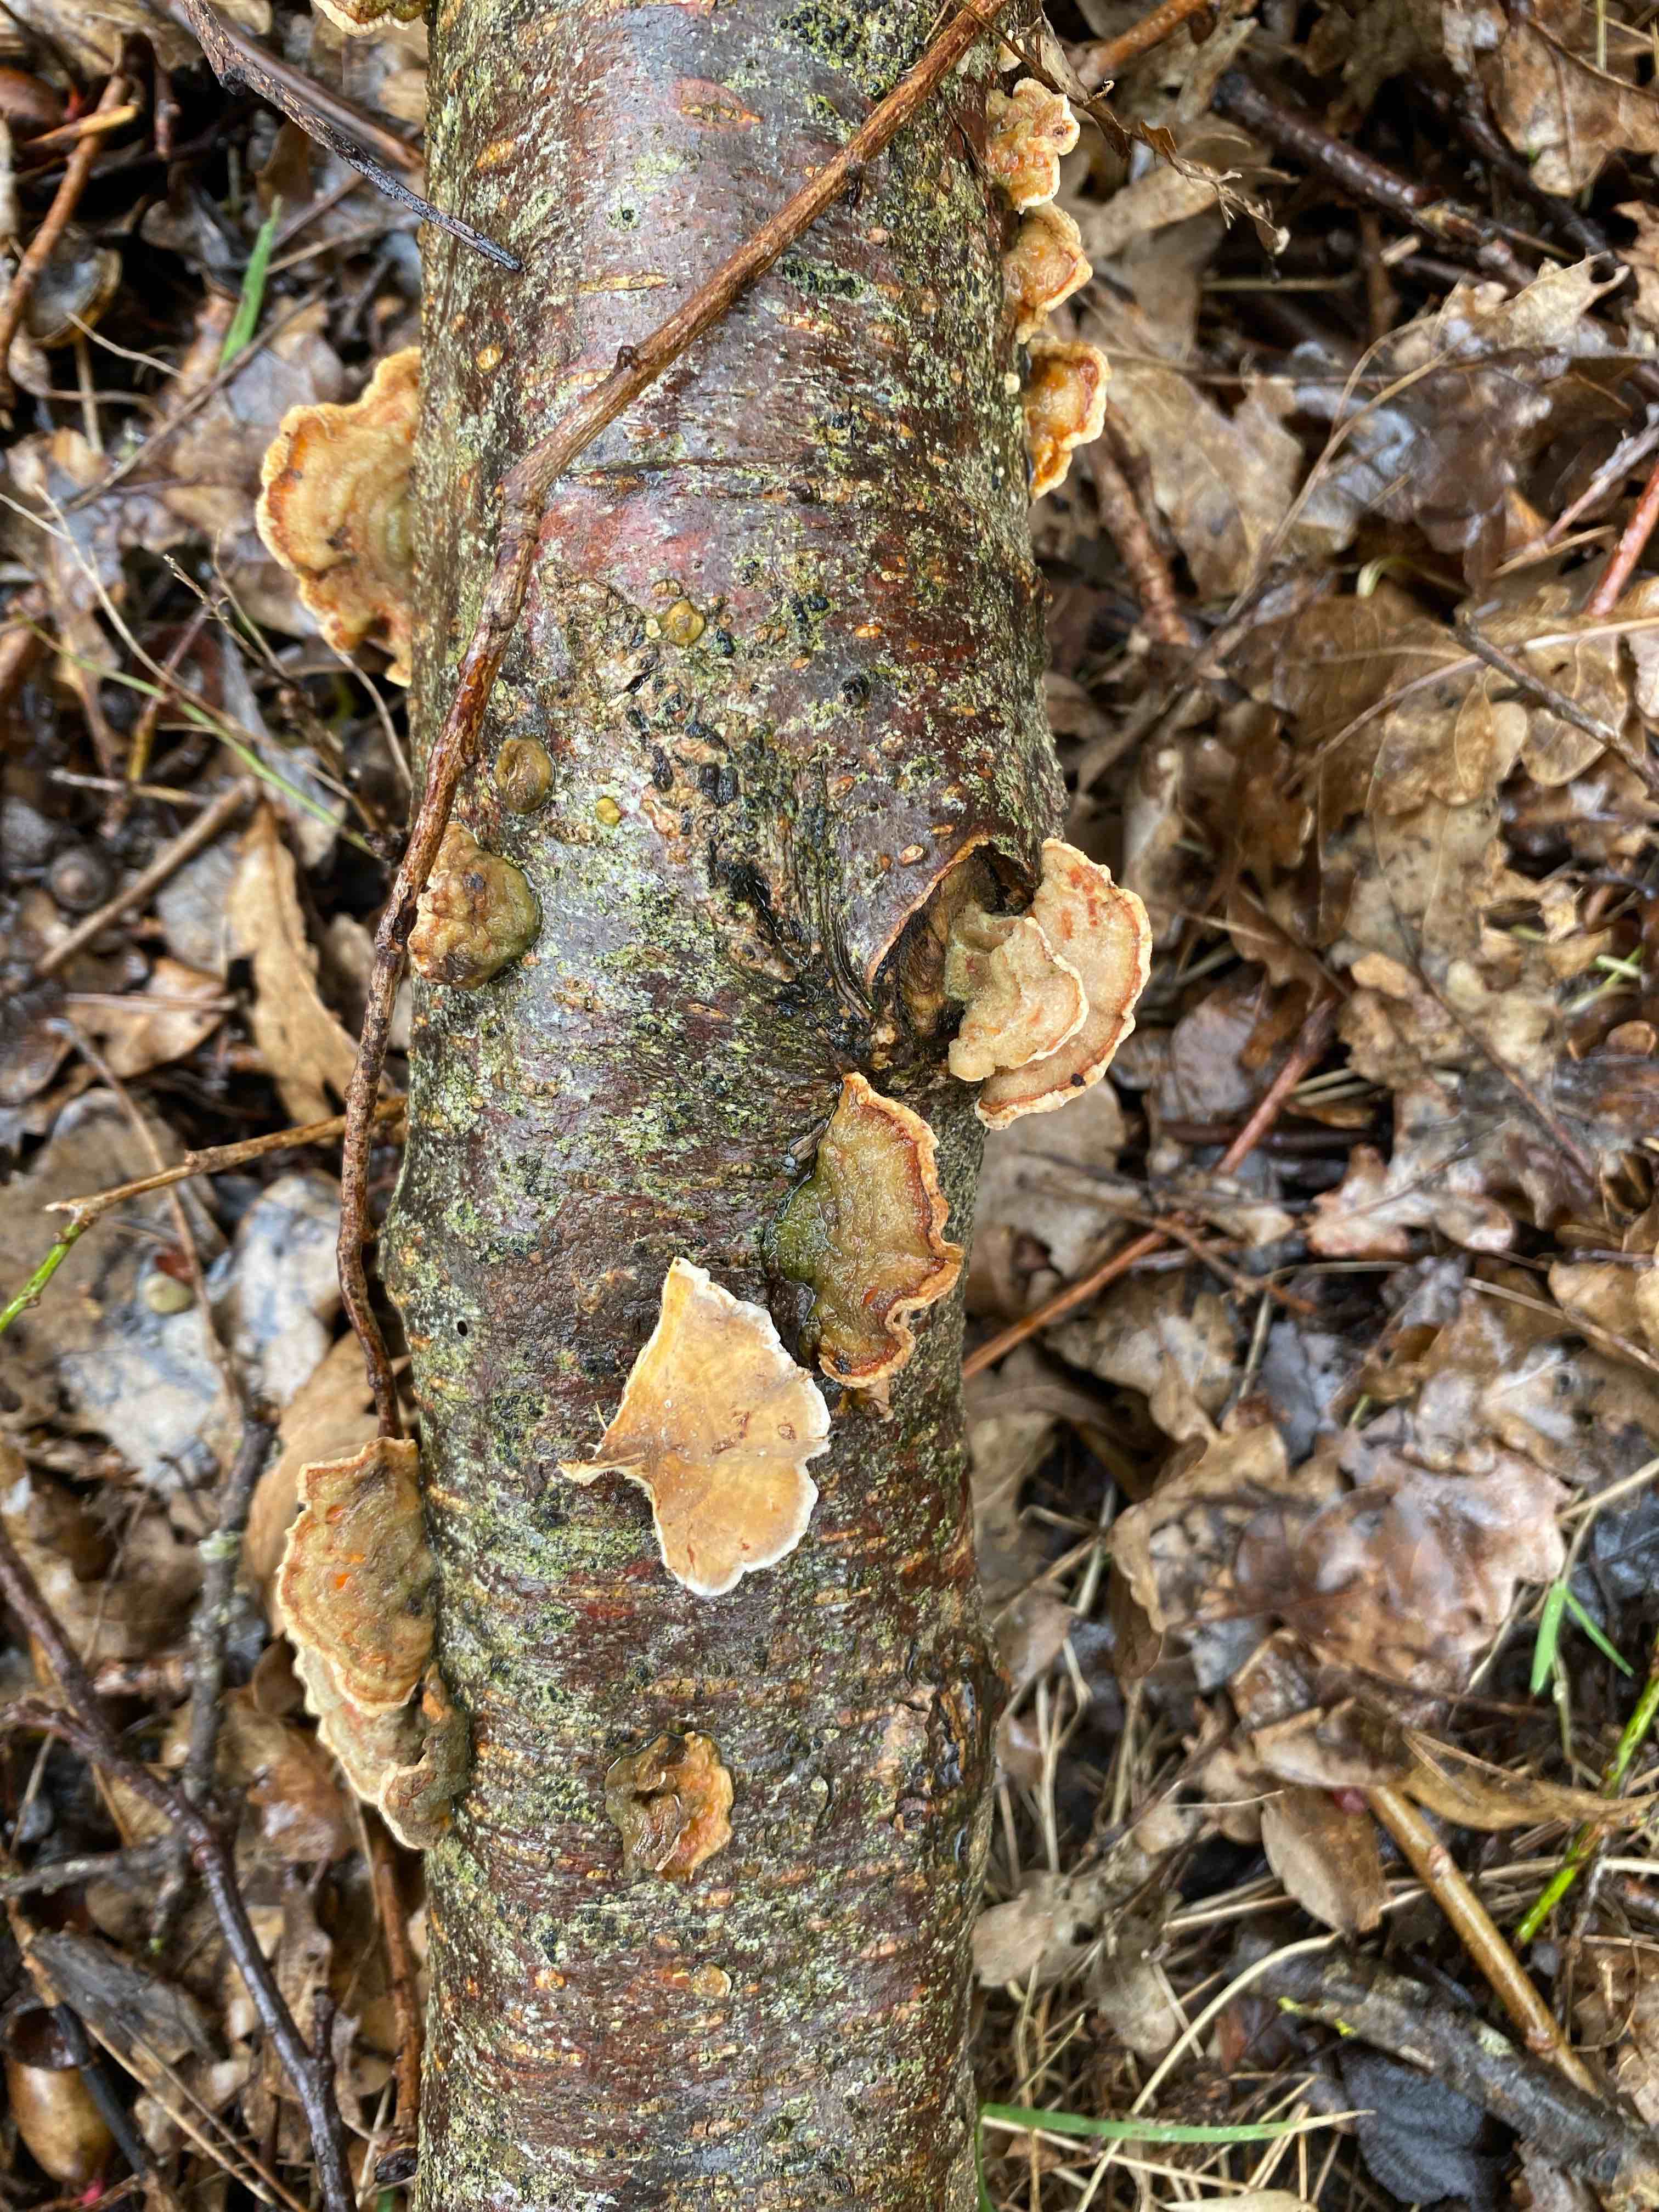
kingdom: Fungi
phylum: Basidiomycota
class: Agaricomycetes
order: Russulales
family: Stereaceae
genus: Stereum
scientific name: Stereum subtomentosum
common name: smuk lædersvamp
